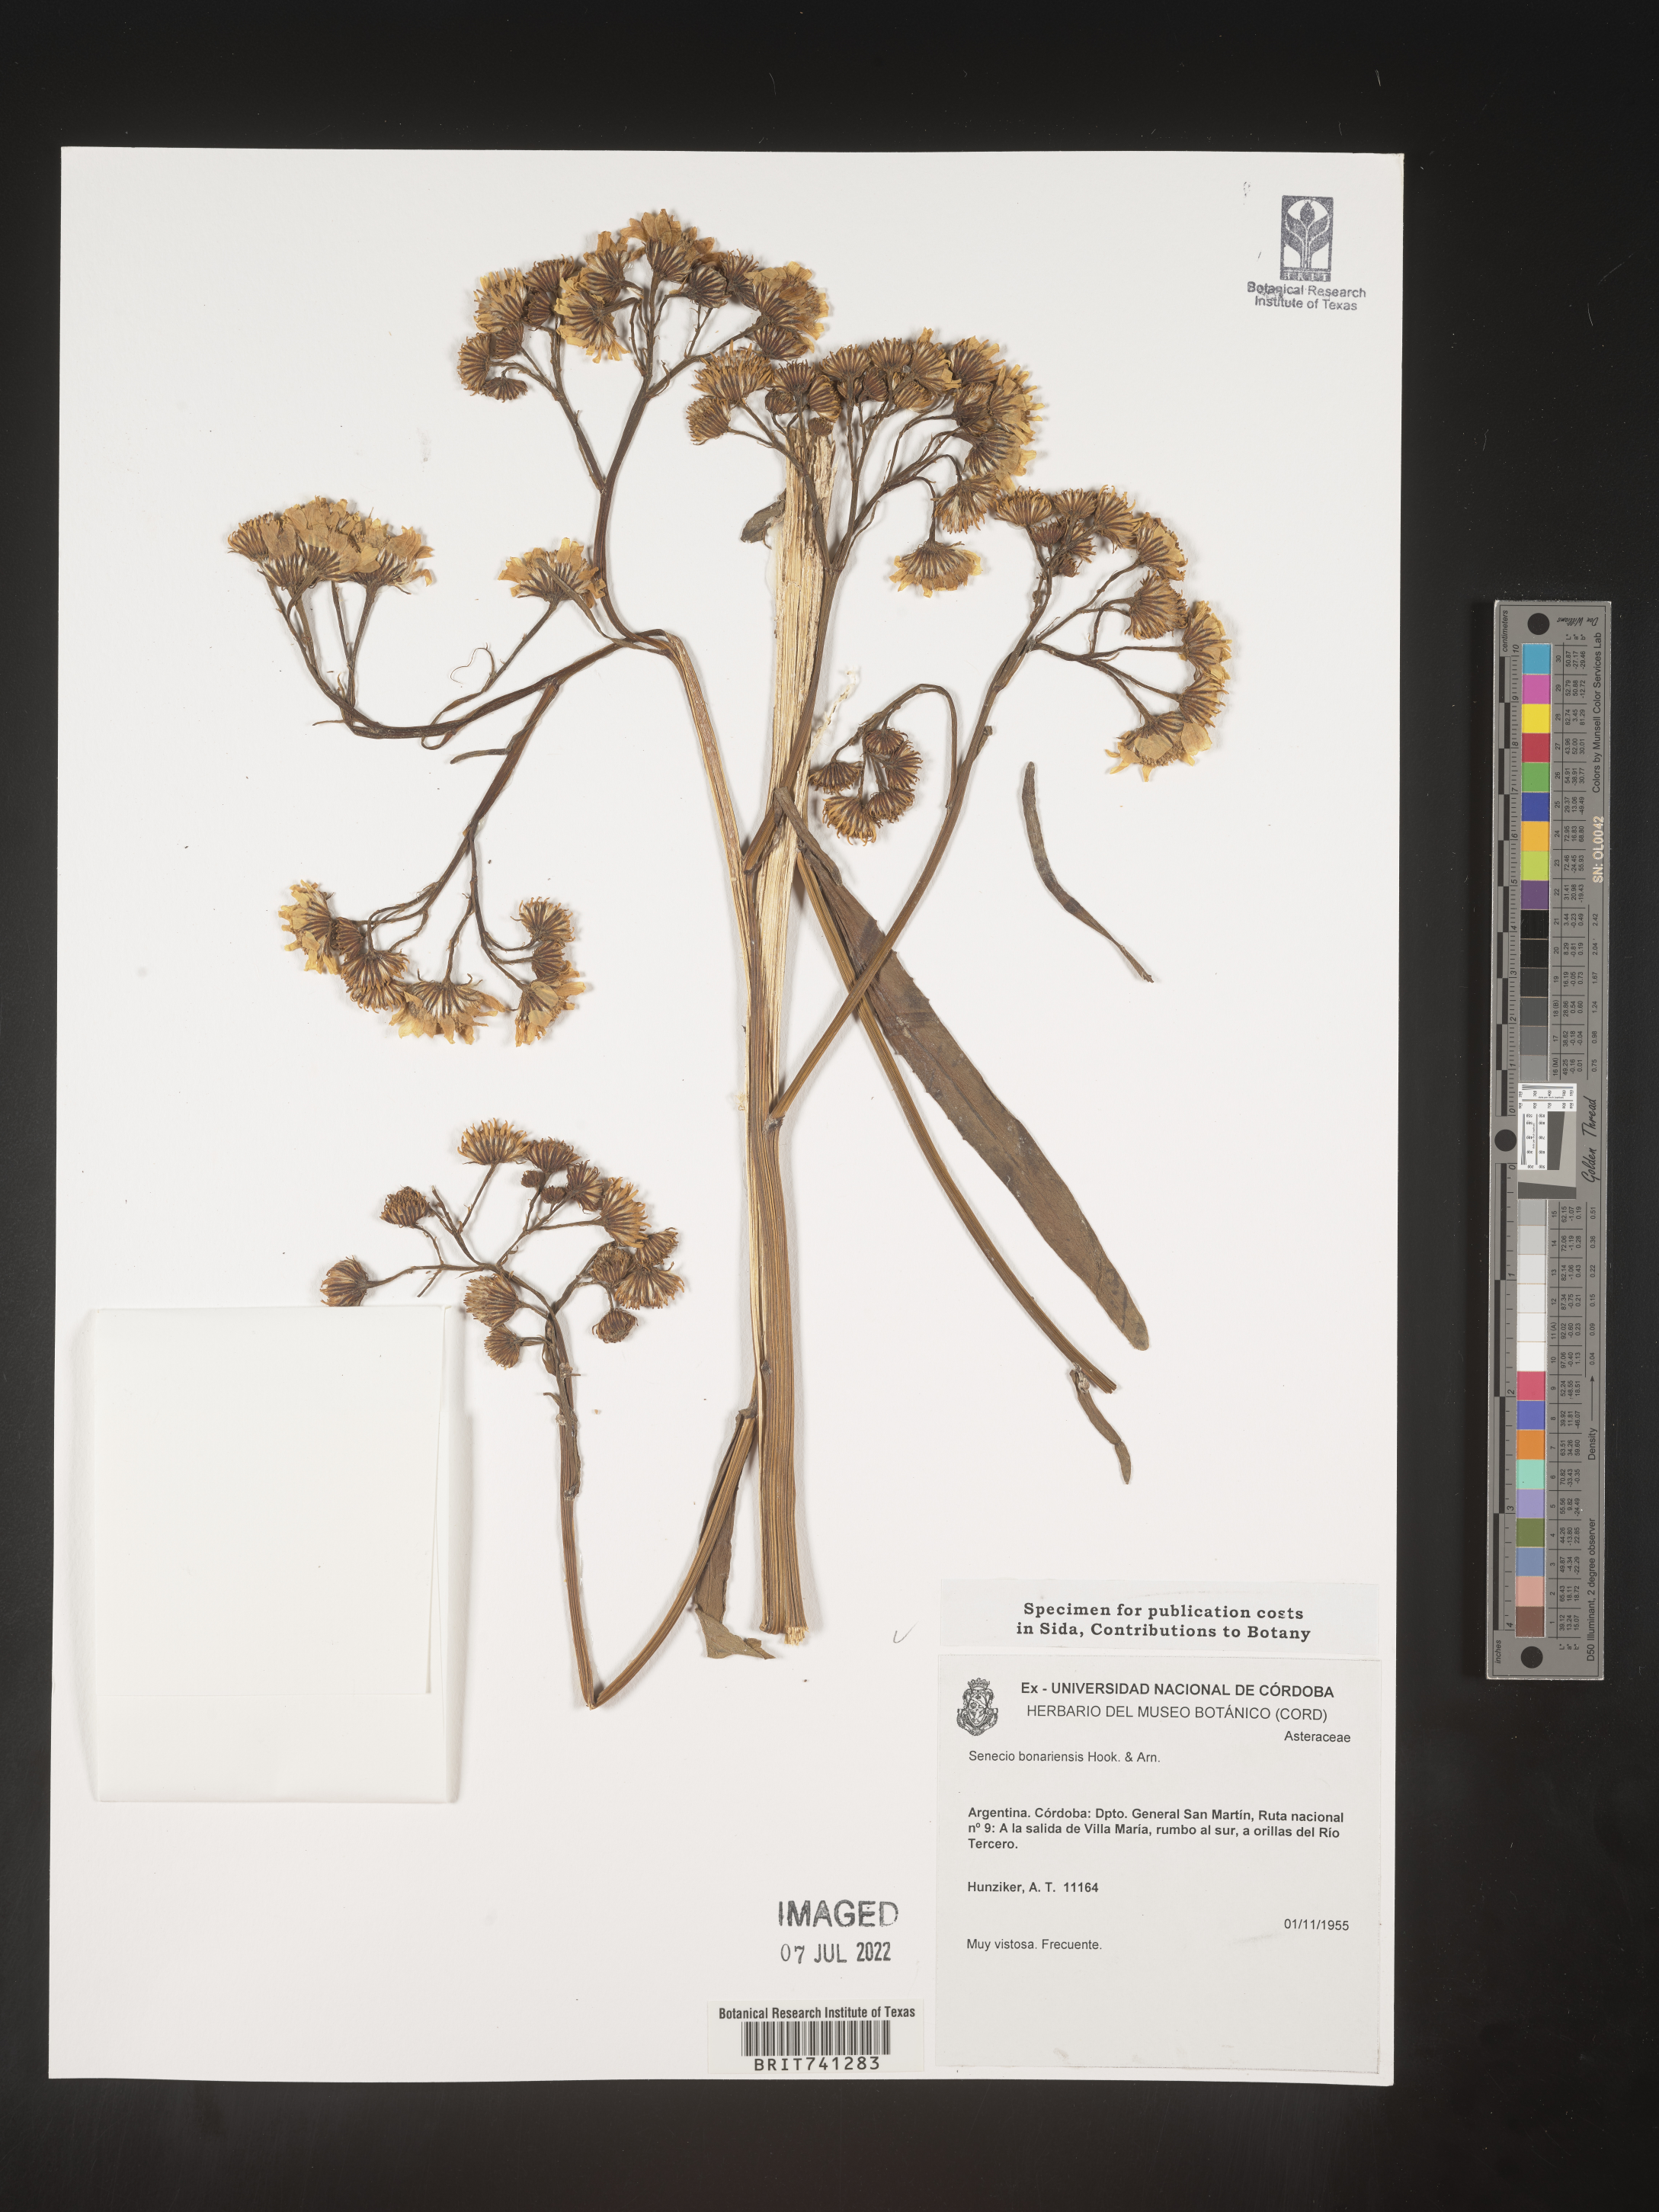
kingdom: Plantae
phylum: Tracheophyta
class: Magnoliopsida
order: Asterales
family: Asteraceae
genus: Senecio
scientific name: Senecio
